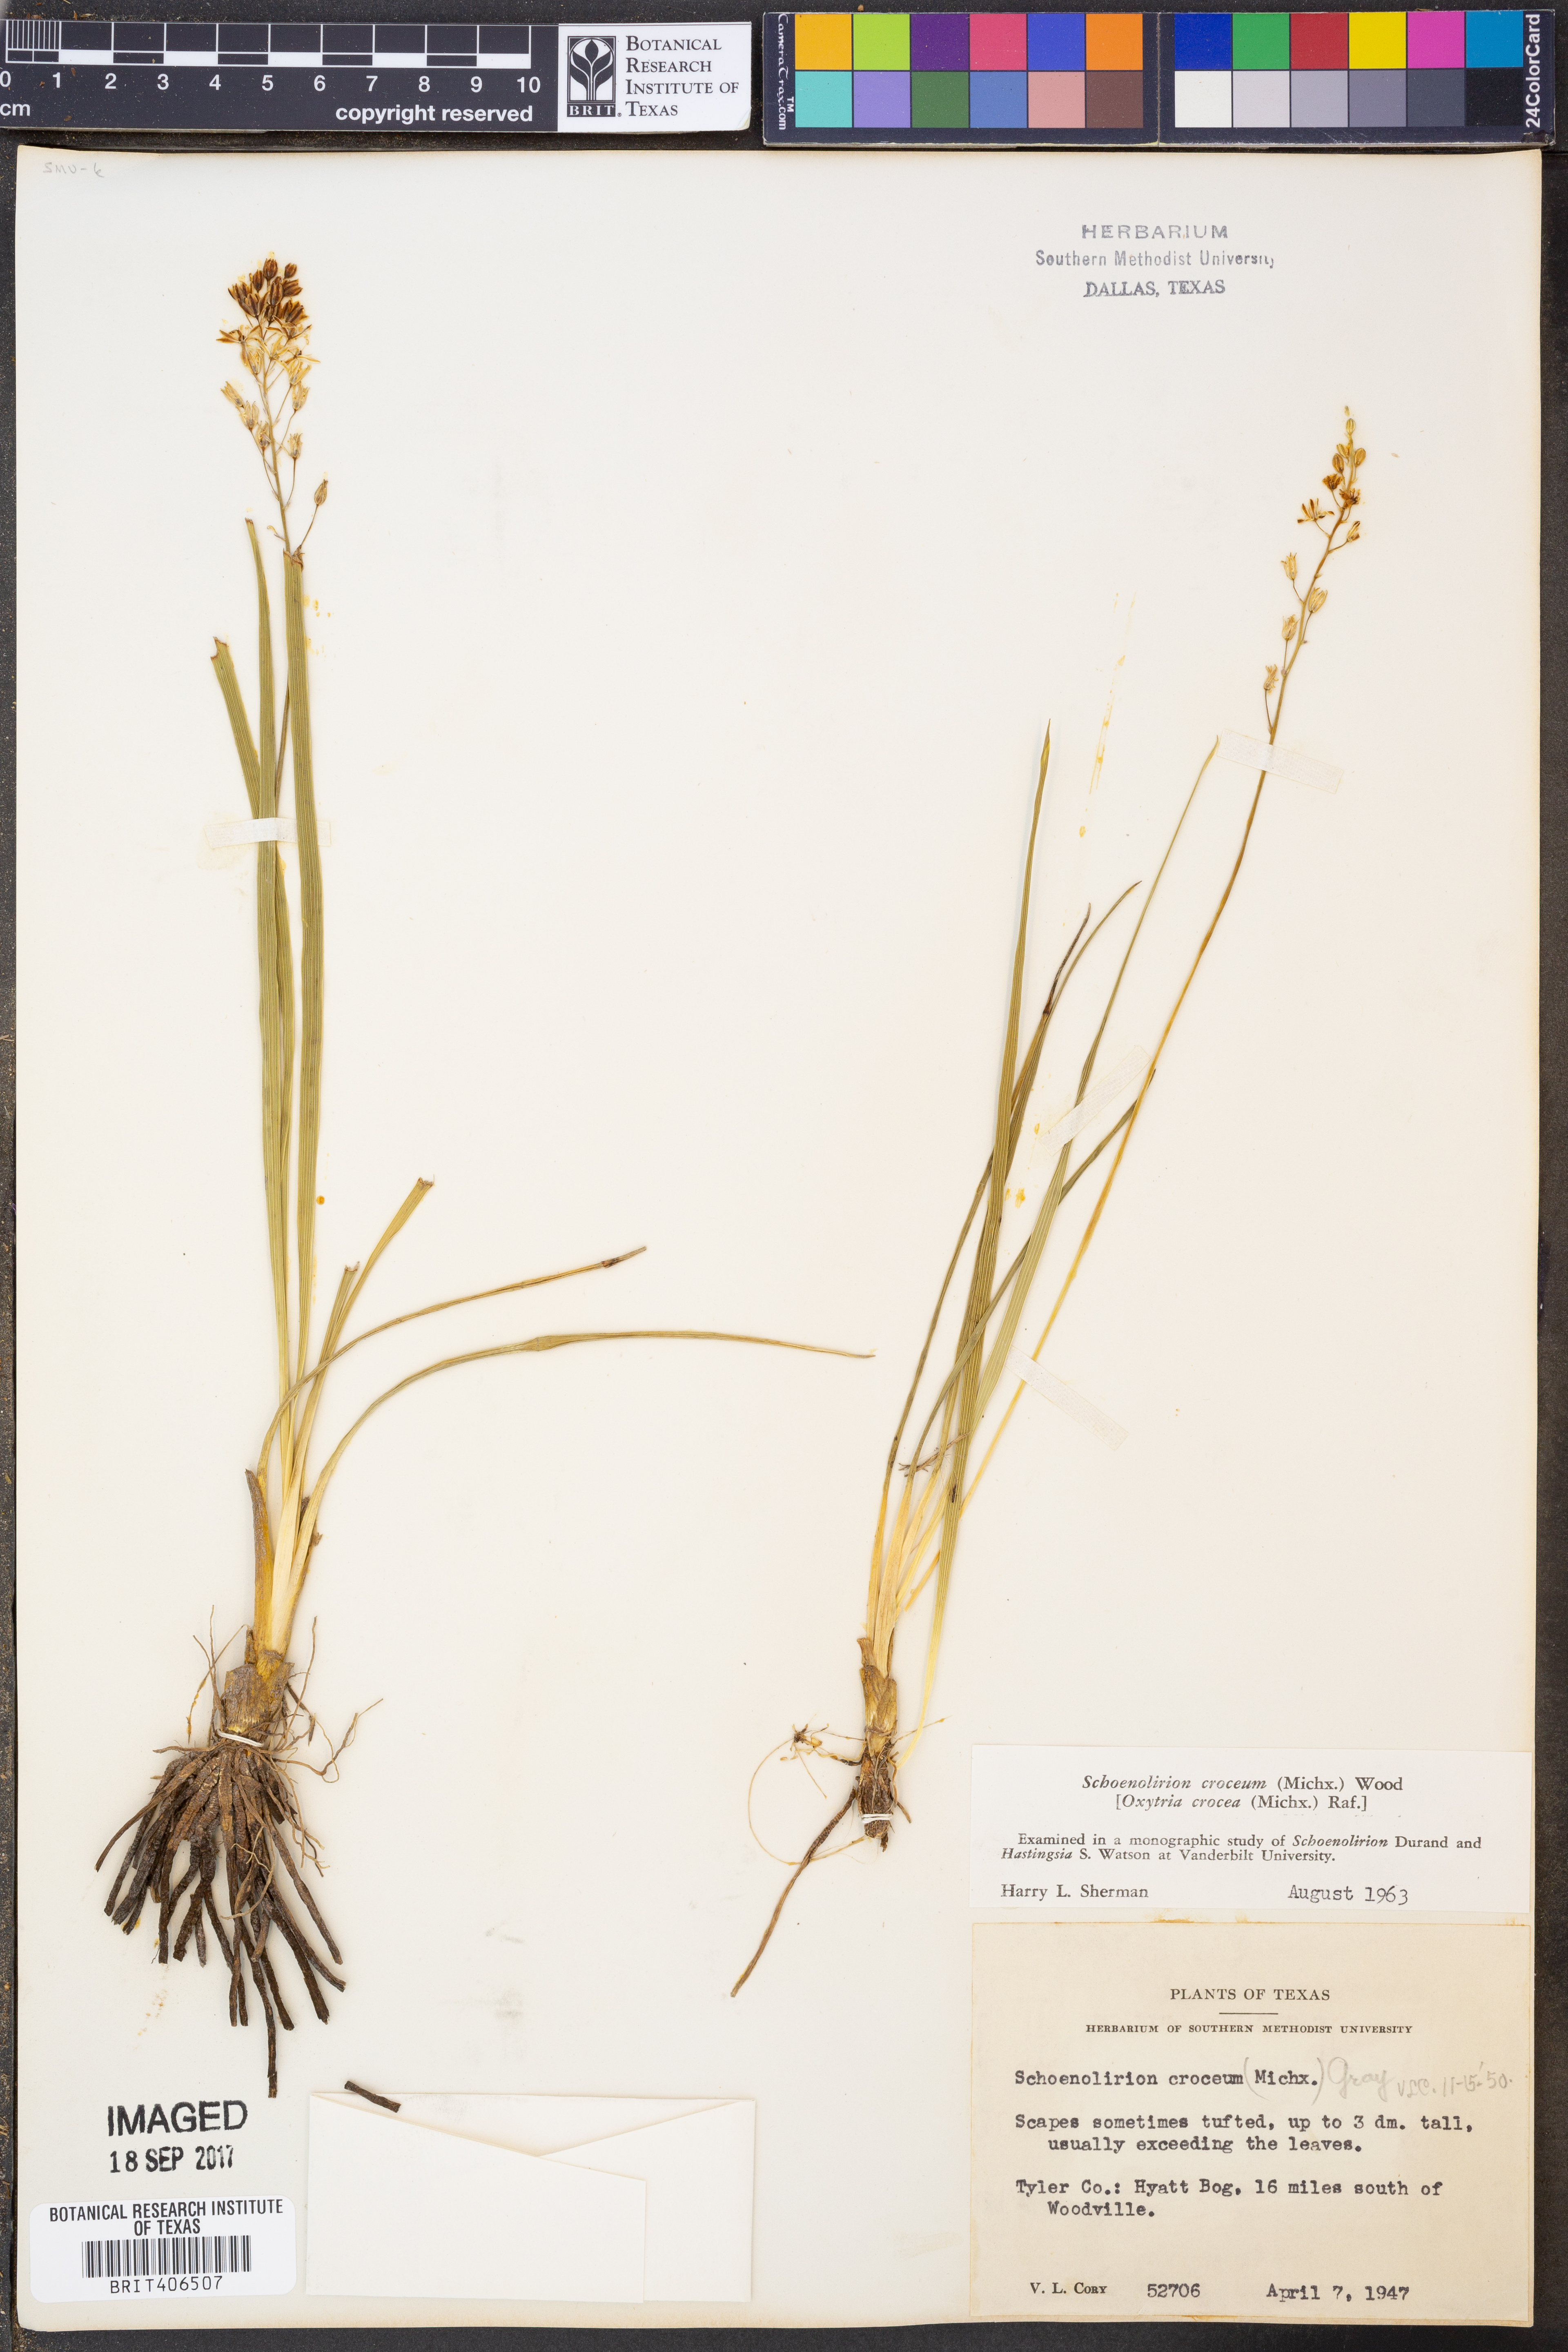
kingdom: Plantae
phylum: Tracheophyta
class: Liliopsida
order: Asparagales
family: Asparagaceae
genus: Schoenolirion
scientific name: Schoenolirion
